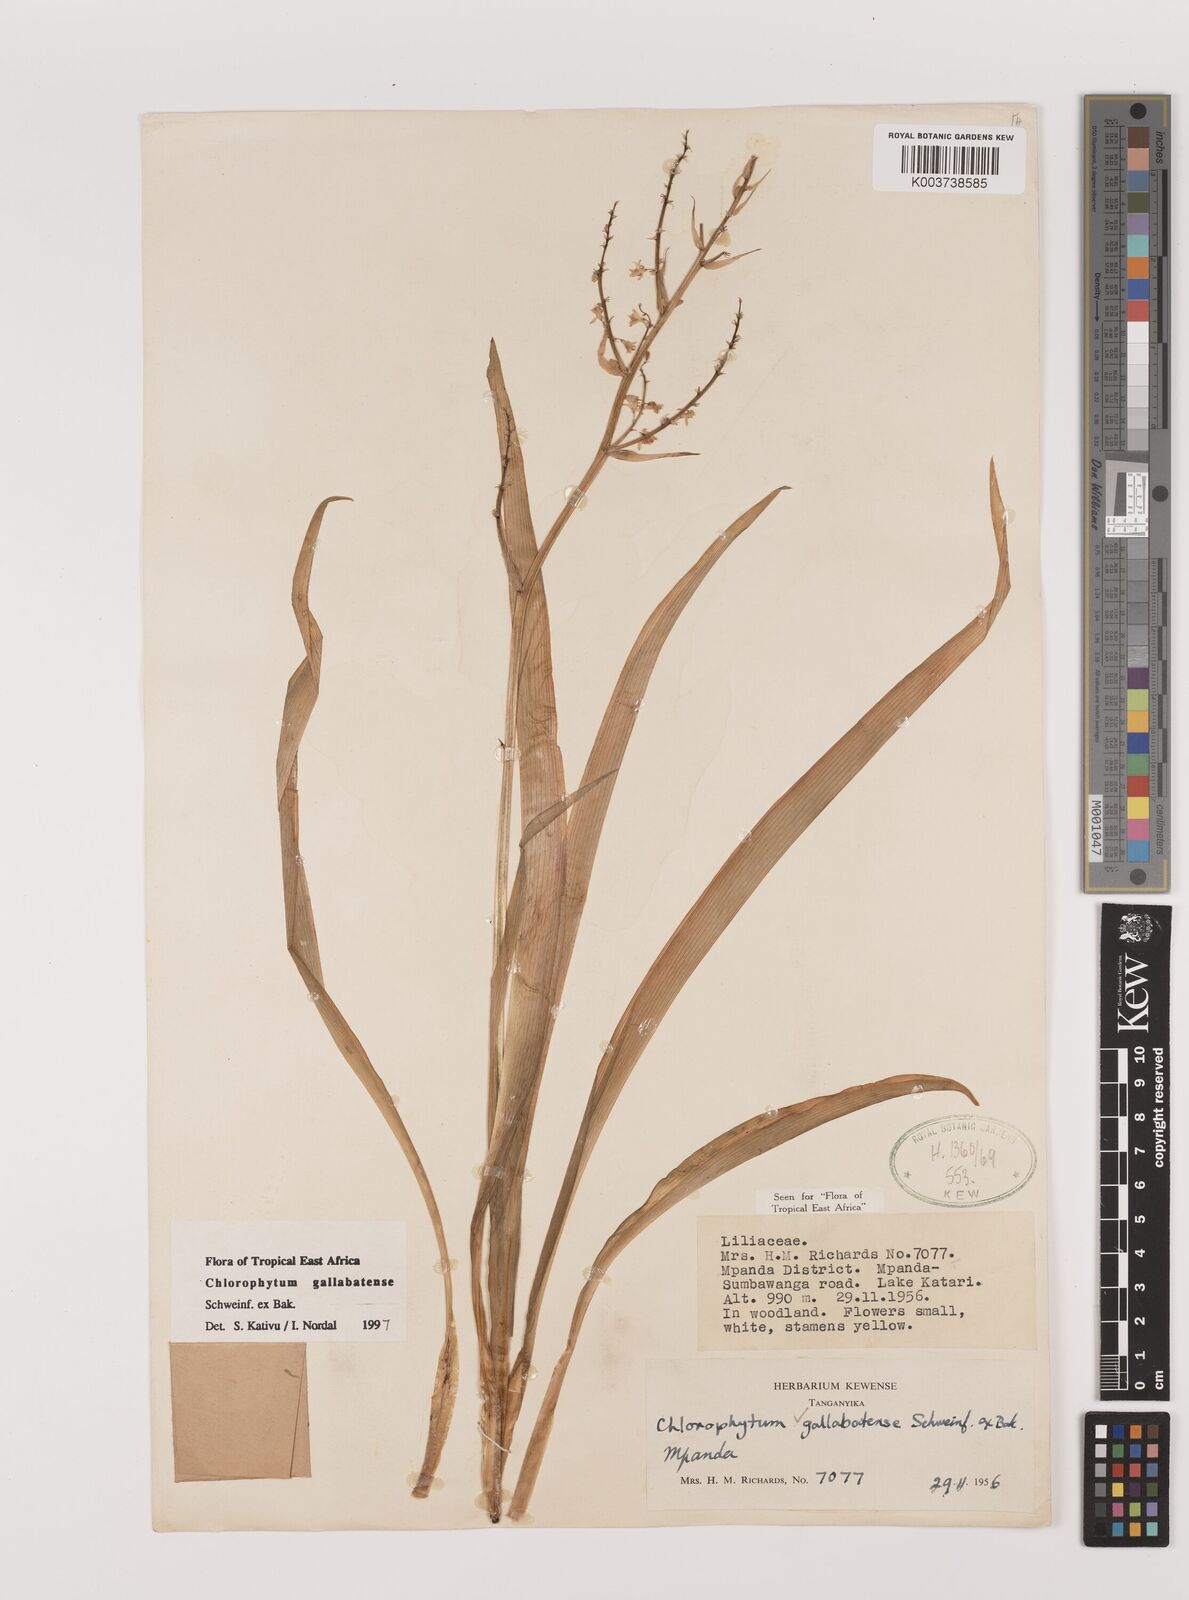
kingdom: Plantae
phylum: Tracheophyta
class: Liliopsida
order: Asparagales
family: Asparagaceae
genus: Chlorophytum
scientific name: Chlorophytum gallabatense
